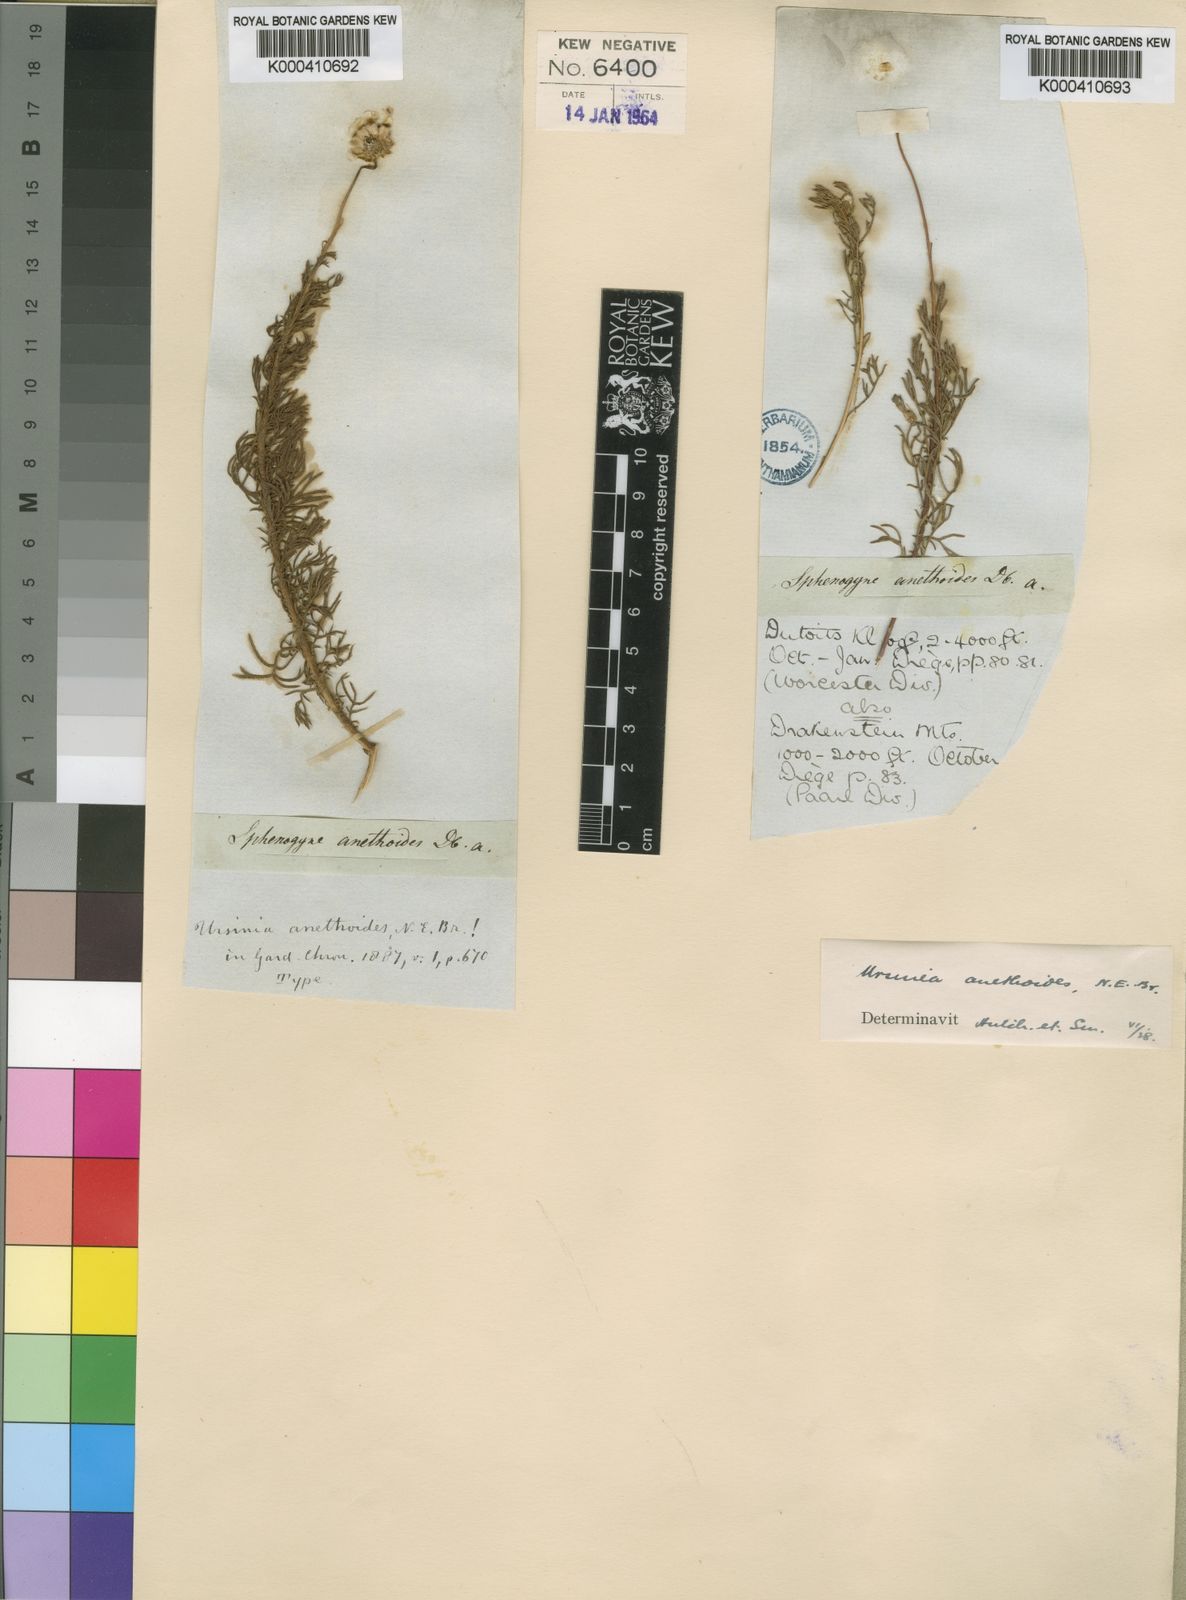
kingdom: Plantae
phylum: Tracheophyta
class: Magnoliopsida
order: Asterales
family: Asteraceae
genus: Ursinia
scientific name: Ursinia anethoides
